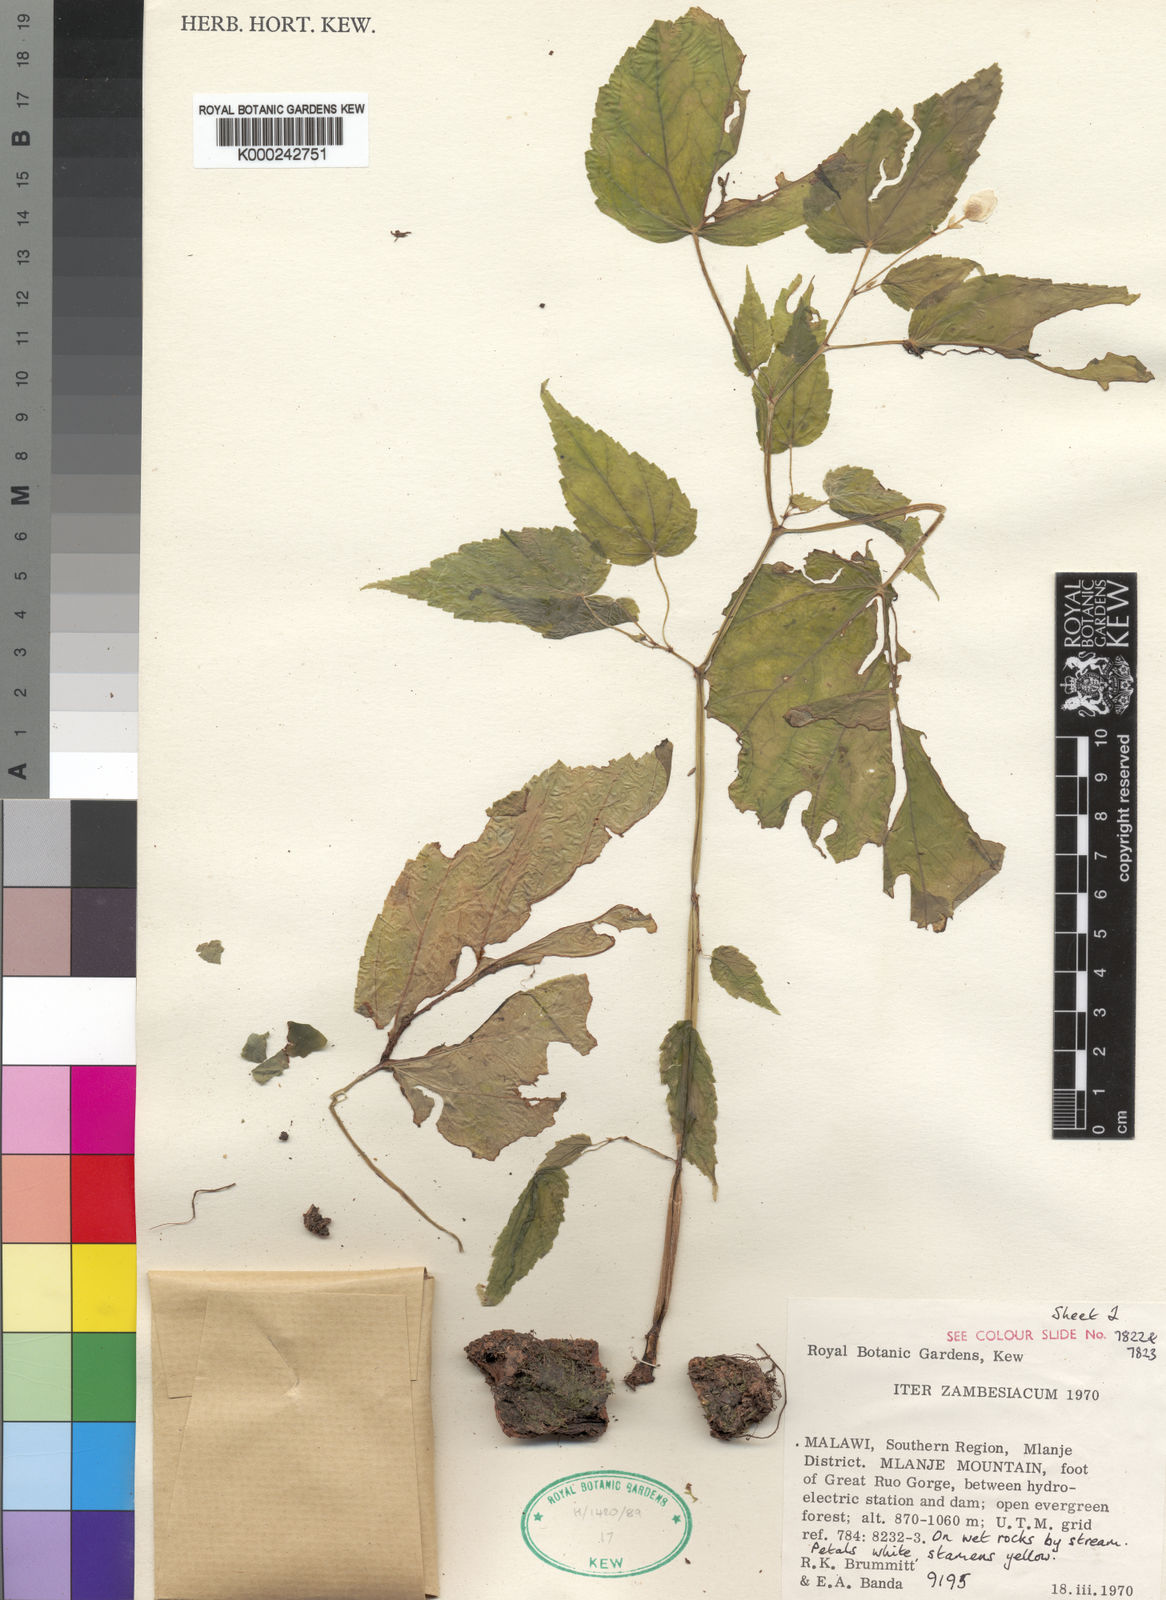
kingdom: Plantae
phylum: Tracheophyta
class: Magnoliopsida
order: Cucurbitales
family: Begoniaceae
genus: Begonia
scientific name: Begonia brevibracteata
